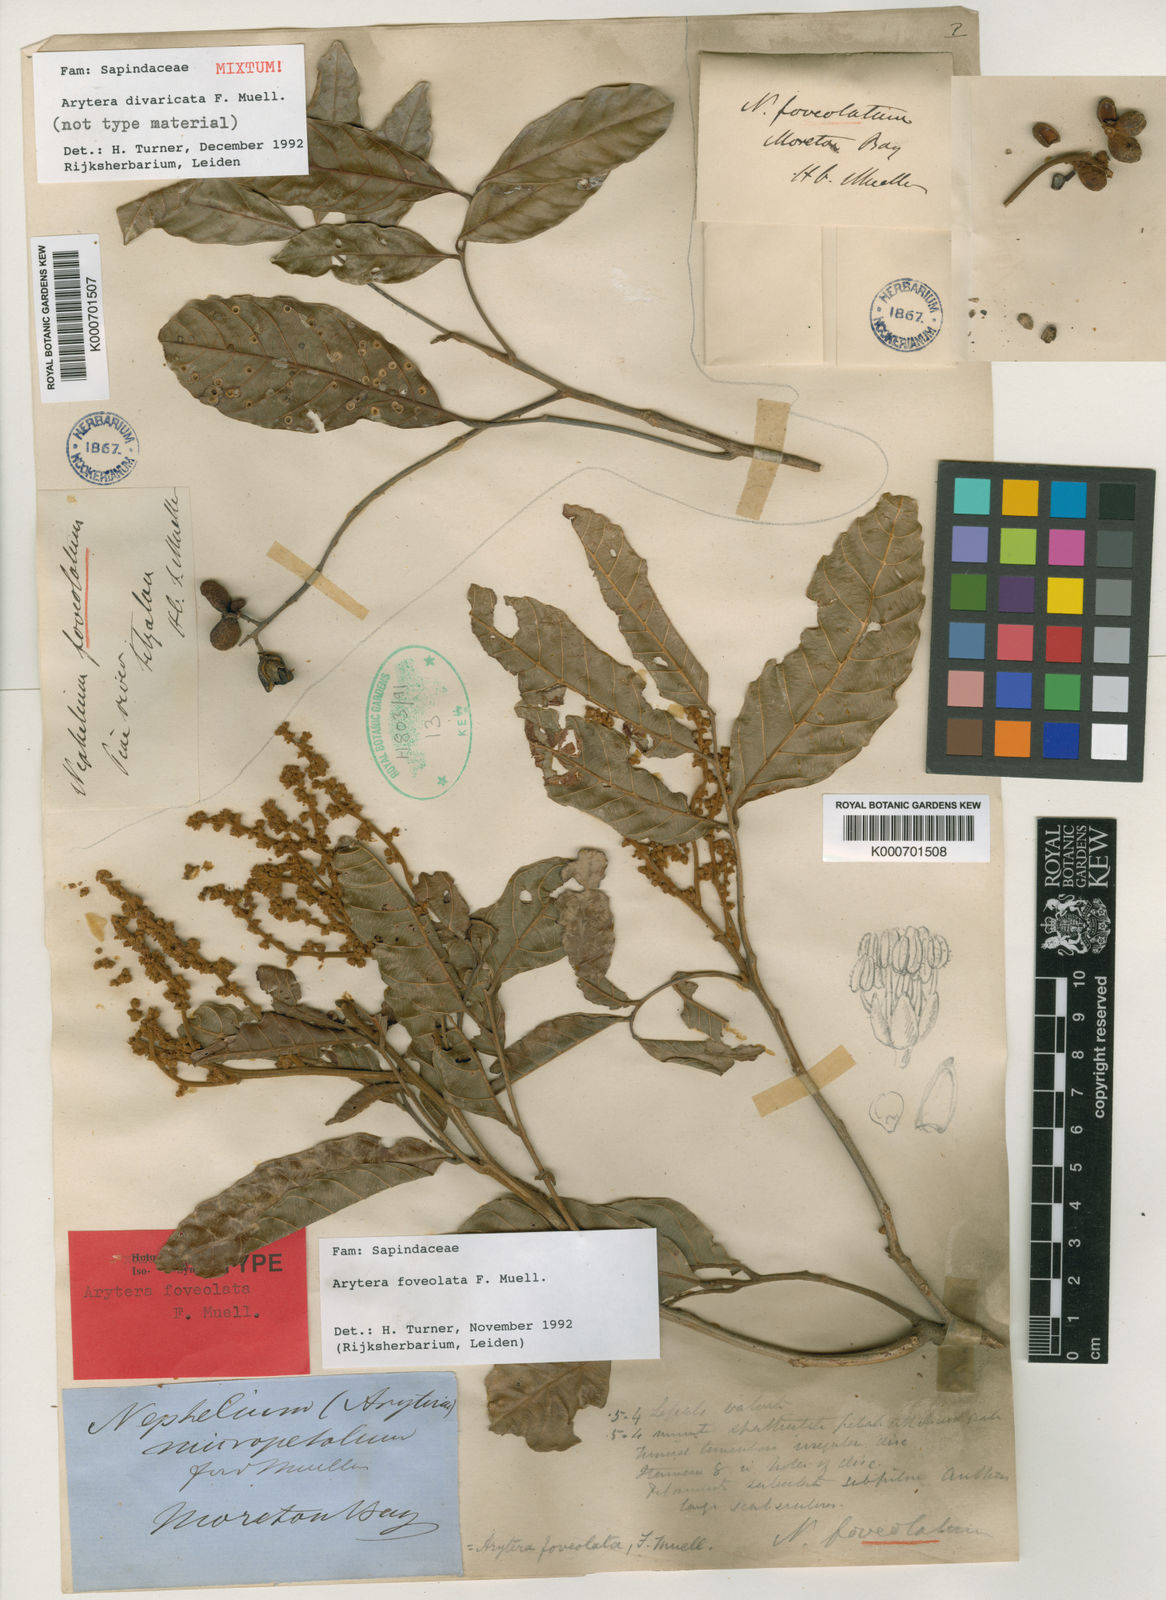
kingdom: Plantae
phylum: Tracheophyta
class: Magnoliopsida
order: Sapindales
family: Sapindaceae
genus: Arytera
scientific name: Arytera divaricata
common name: Coogera
